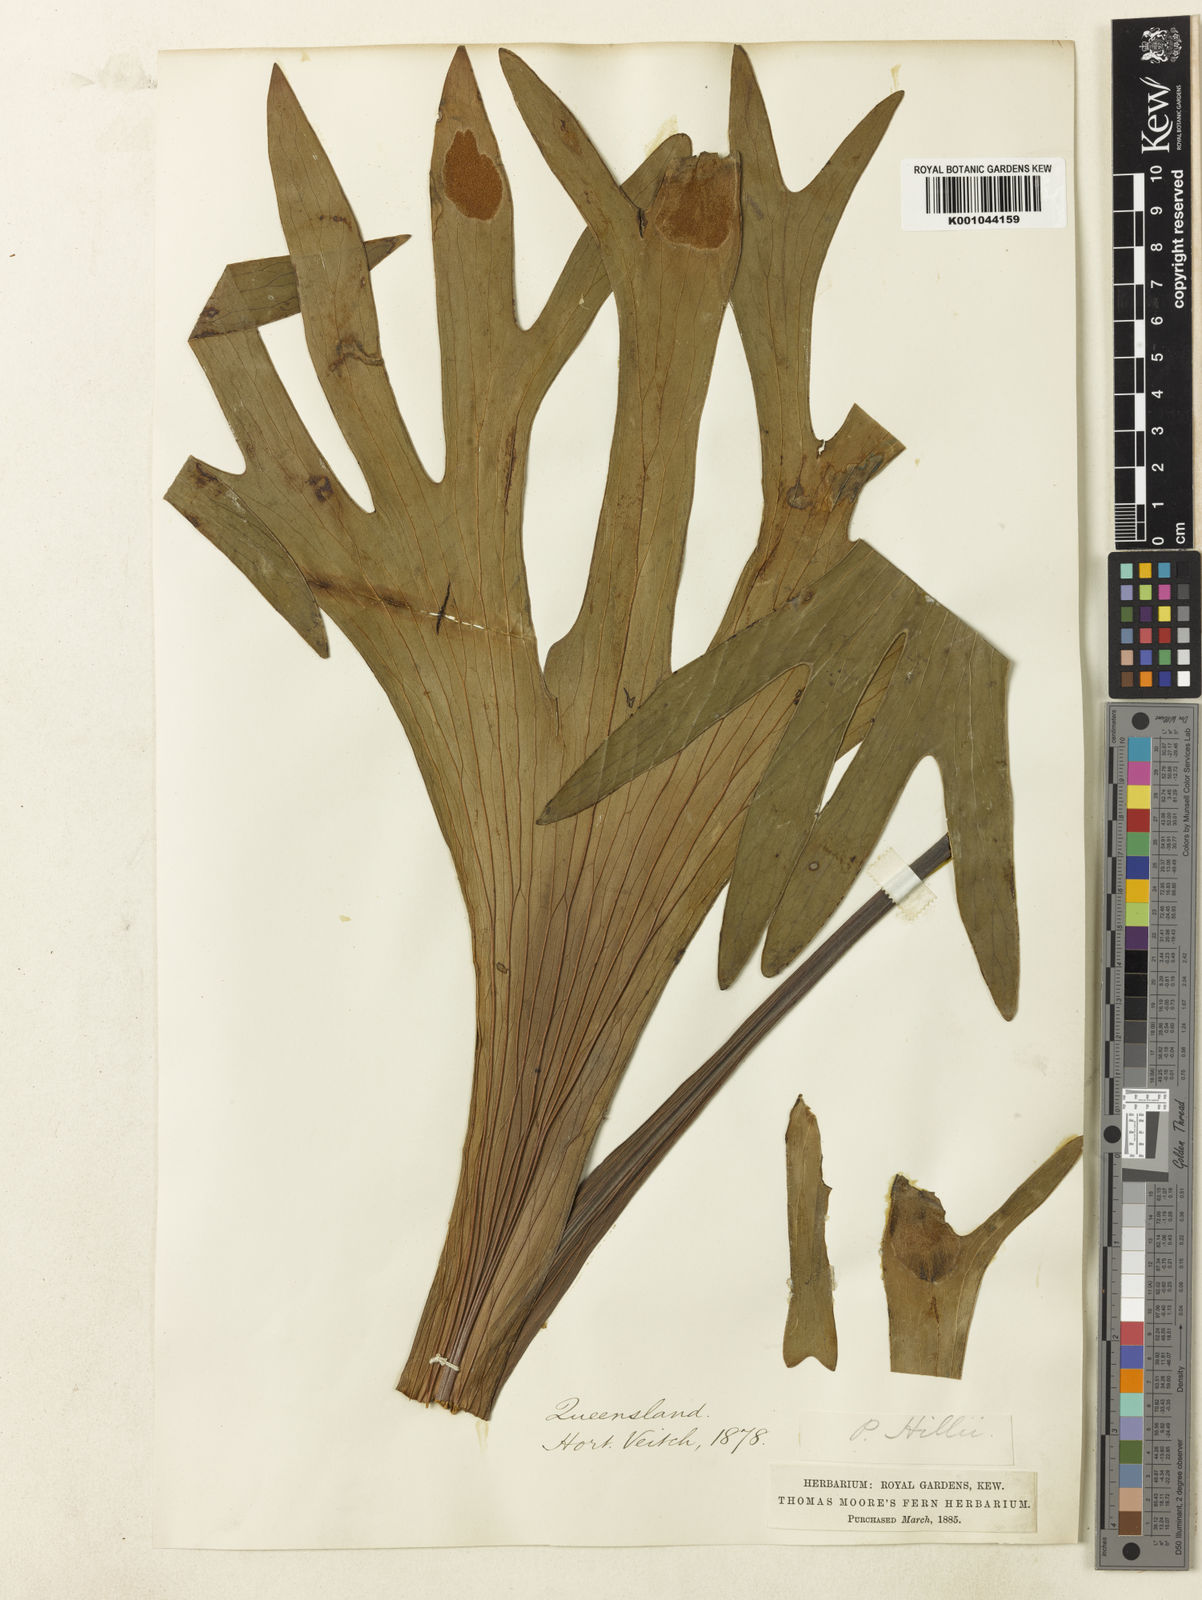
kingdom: Plantae
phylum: Tracheophyta
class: Polypodiopsida
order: Polypodiales
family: Polypodiaceae
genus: Platycerium
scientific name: Platycerium hillii
